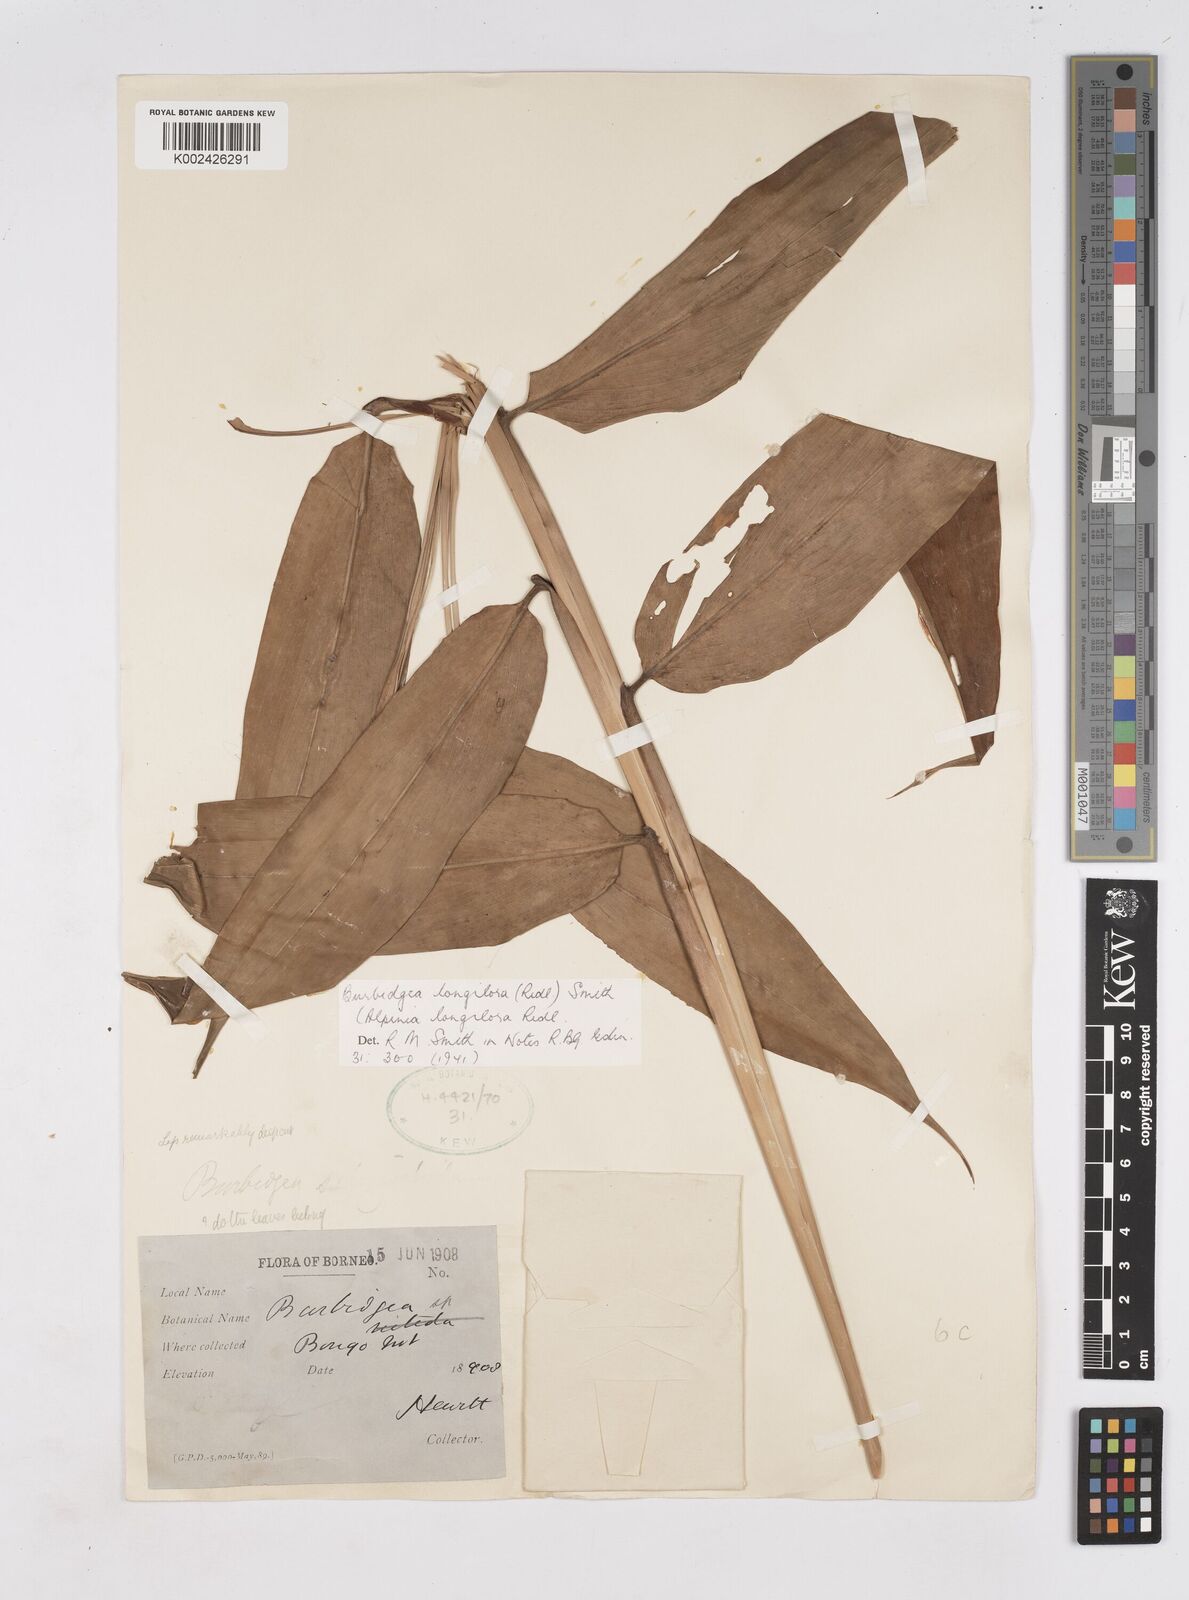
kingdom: Plantae
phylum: Tracheophyta
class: Liliopsida
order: Zingiberales
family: Zingiberaceae
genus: Burbidgea
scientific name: Burbidgea longiflora
